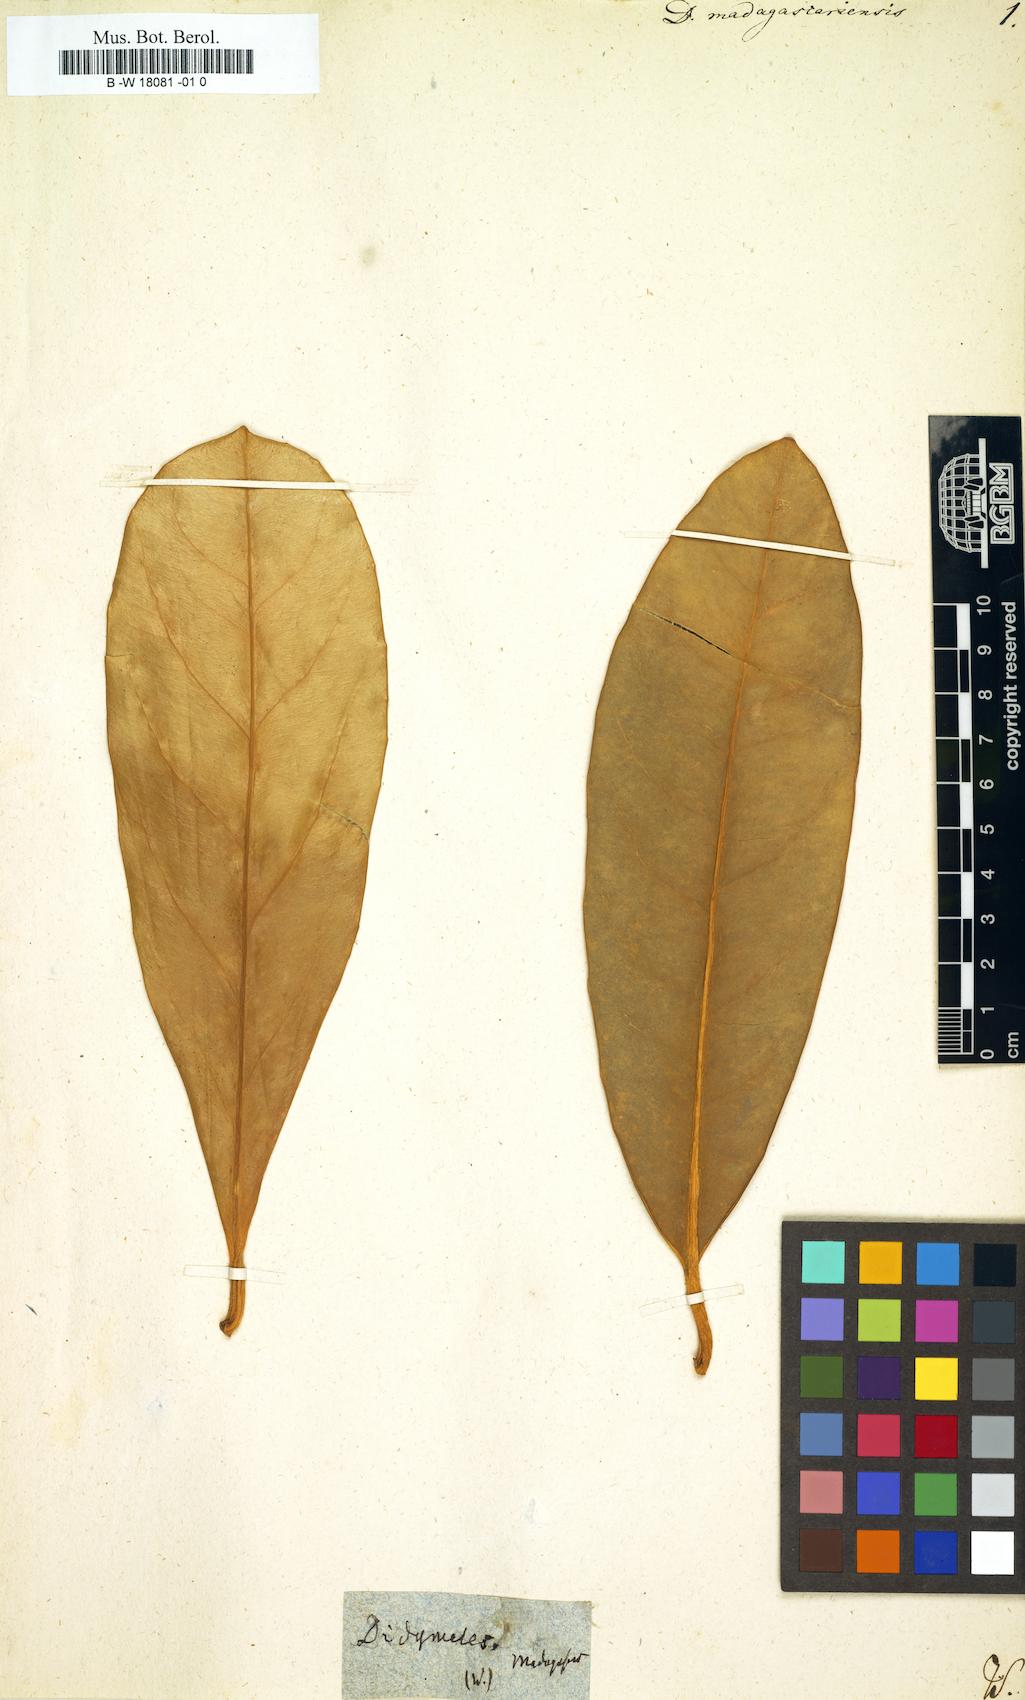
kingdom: Plantae
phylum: Tracheophyta
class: Magnoliopsida
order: Buxales
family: Didymelaceae
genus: Didymeles
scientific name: Didymeles integrifolia
